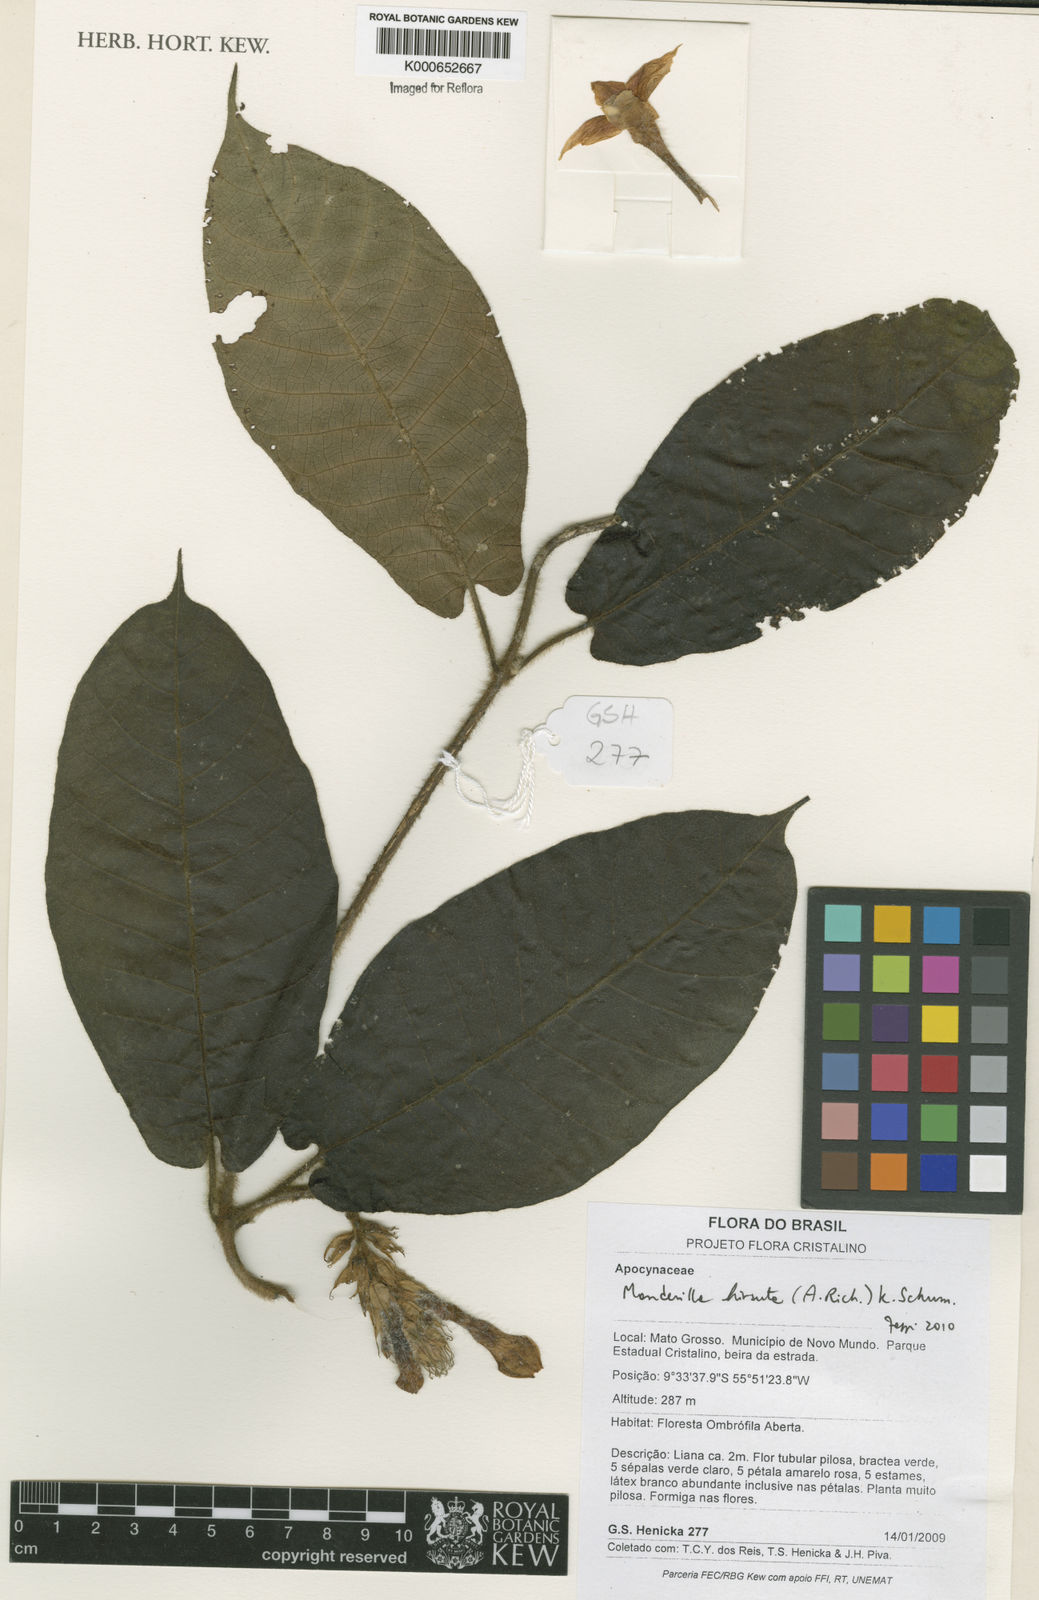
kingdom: Plantae
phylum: Tracheophyta
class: Magnoliopsida
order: Gentianales
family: Apocynaceae
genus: Mandevilla
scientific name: Mandevilla hirsuta
